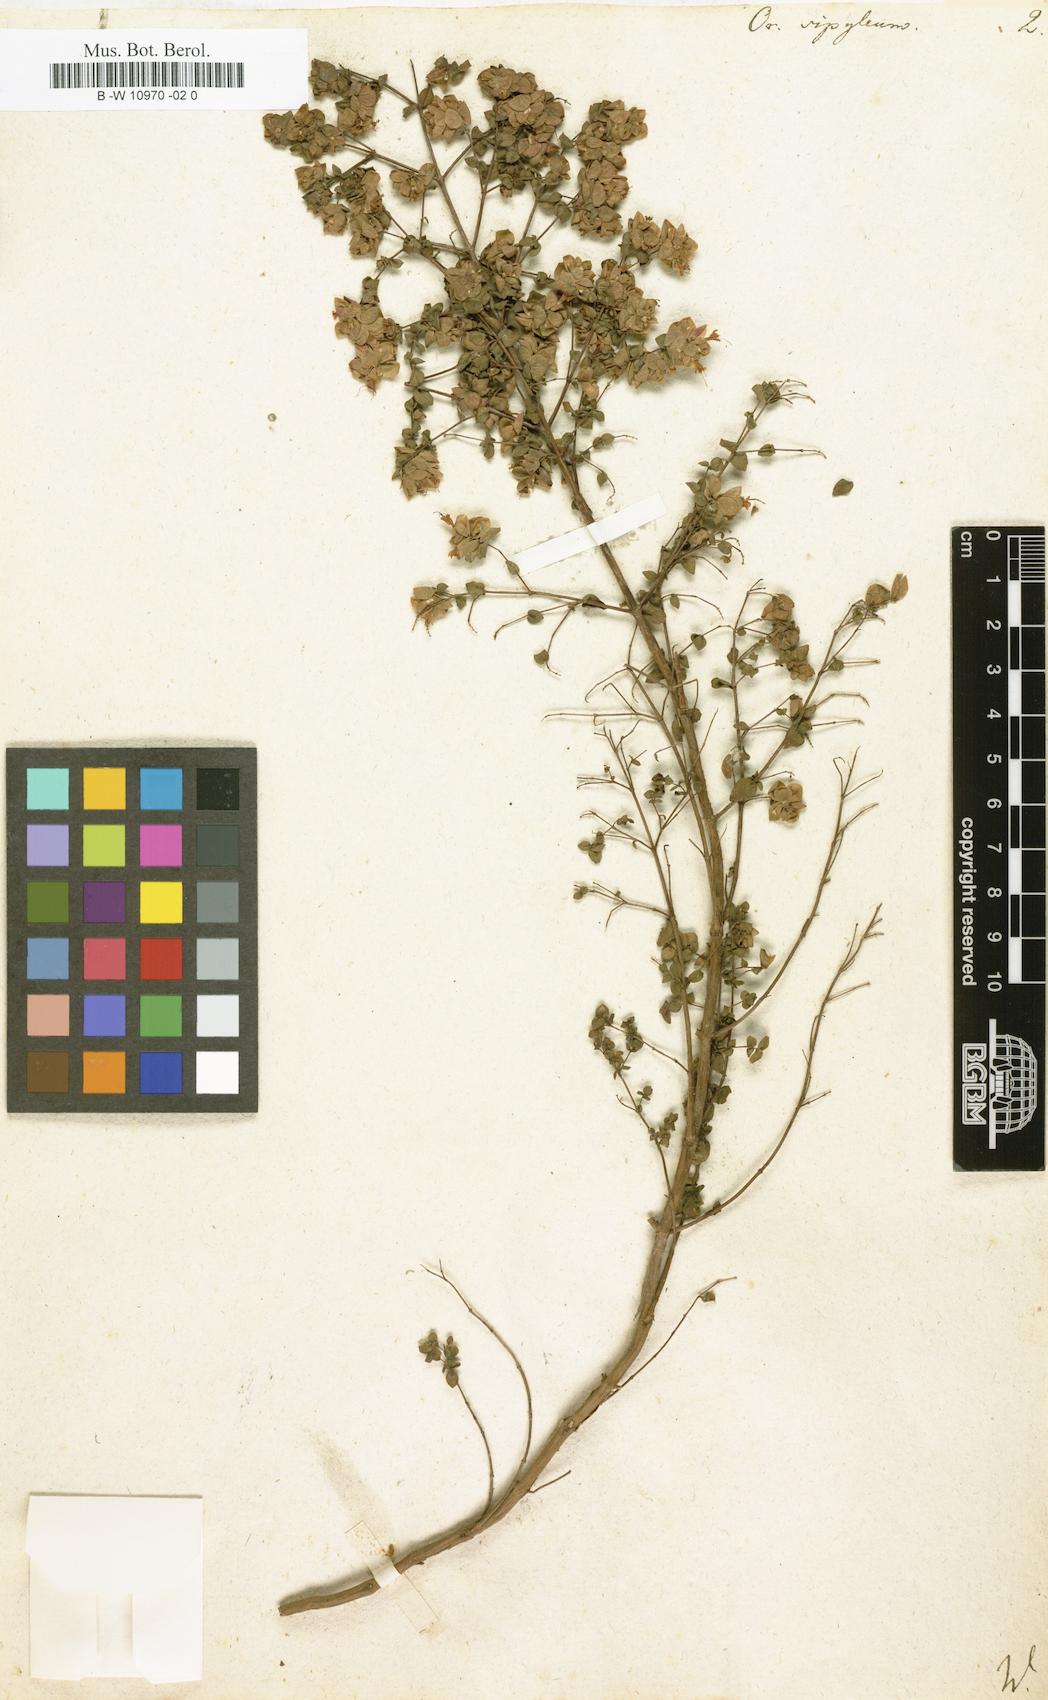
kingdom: Plantae
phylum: Tracheophyta
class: Magnoliopsida
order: Lamiales
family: Lamiaceae
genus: Origanum
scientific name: Origanum sipyleum
